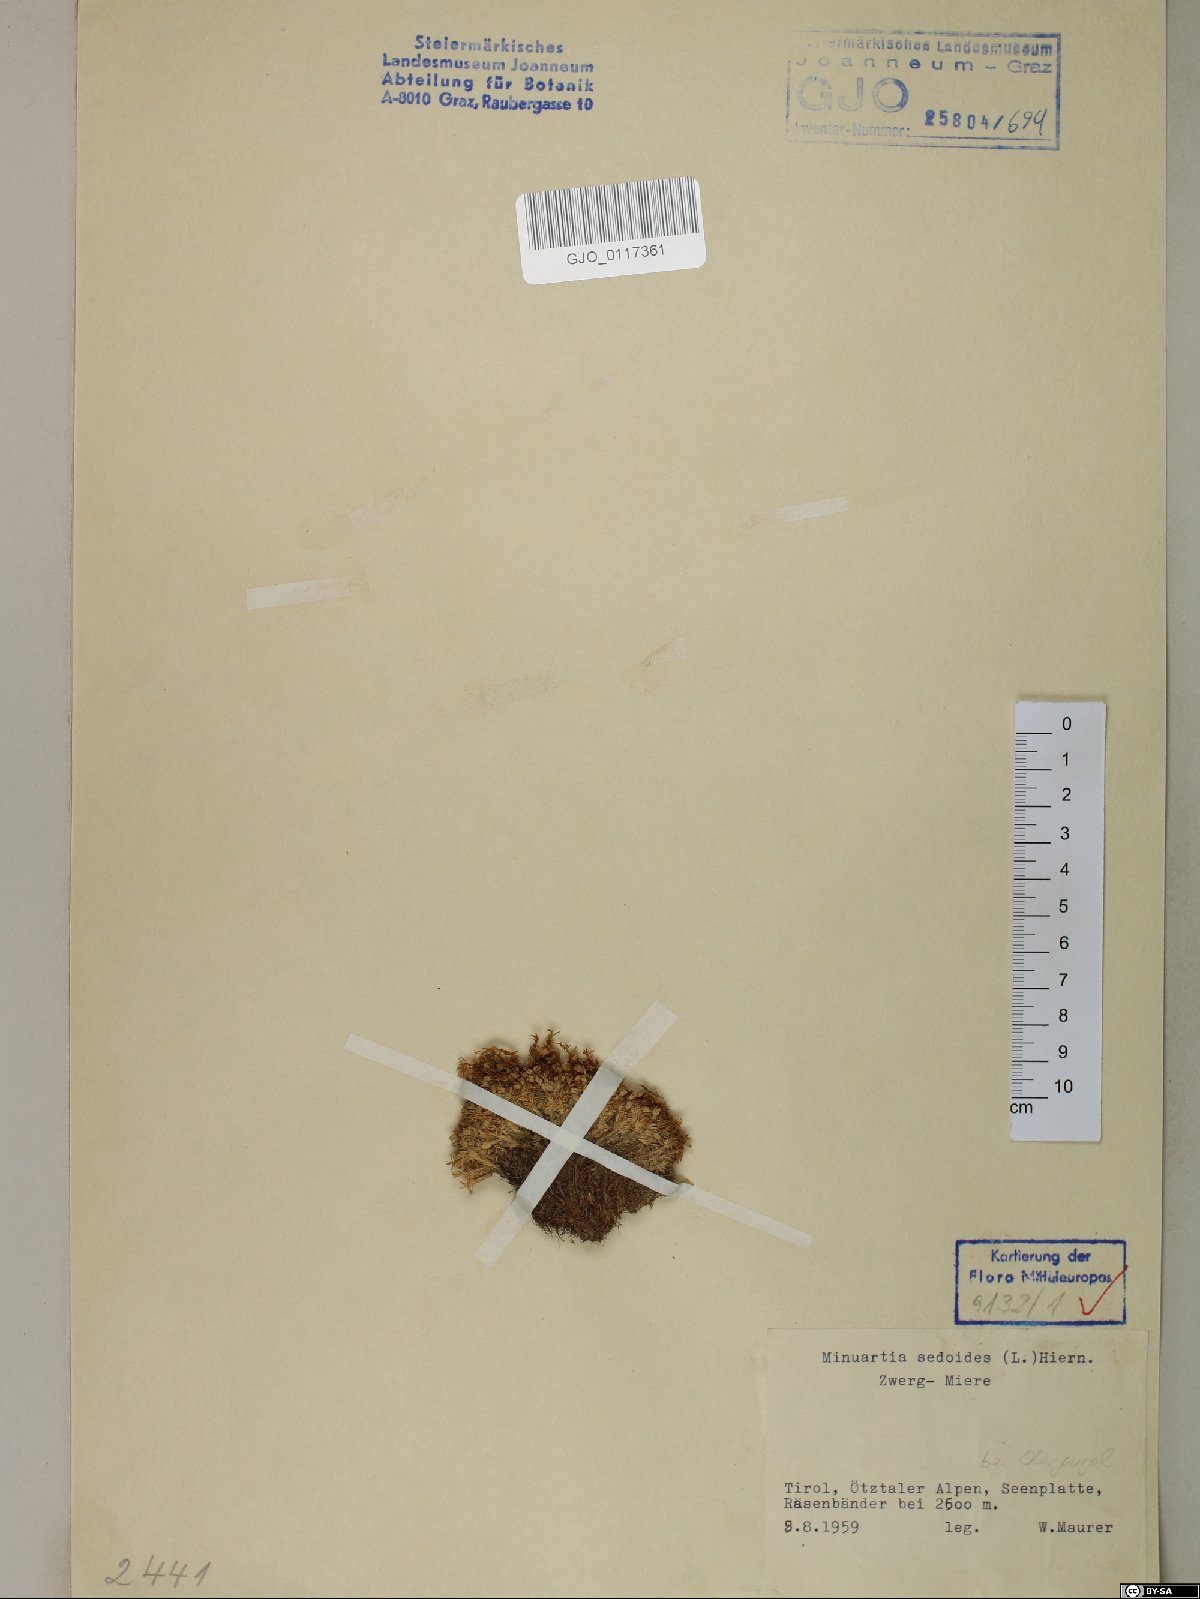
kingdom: Plantae
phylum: Tracheophyta
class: Magnoliopsida
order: Caryophyllales
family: Caryophyllaceae
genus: Cherleria
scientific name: Cherleria sedoides
